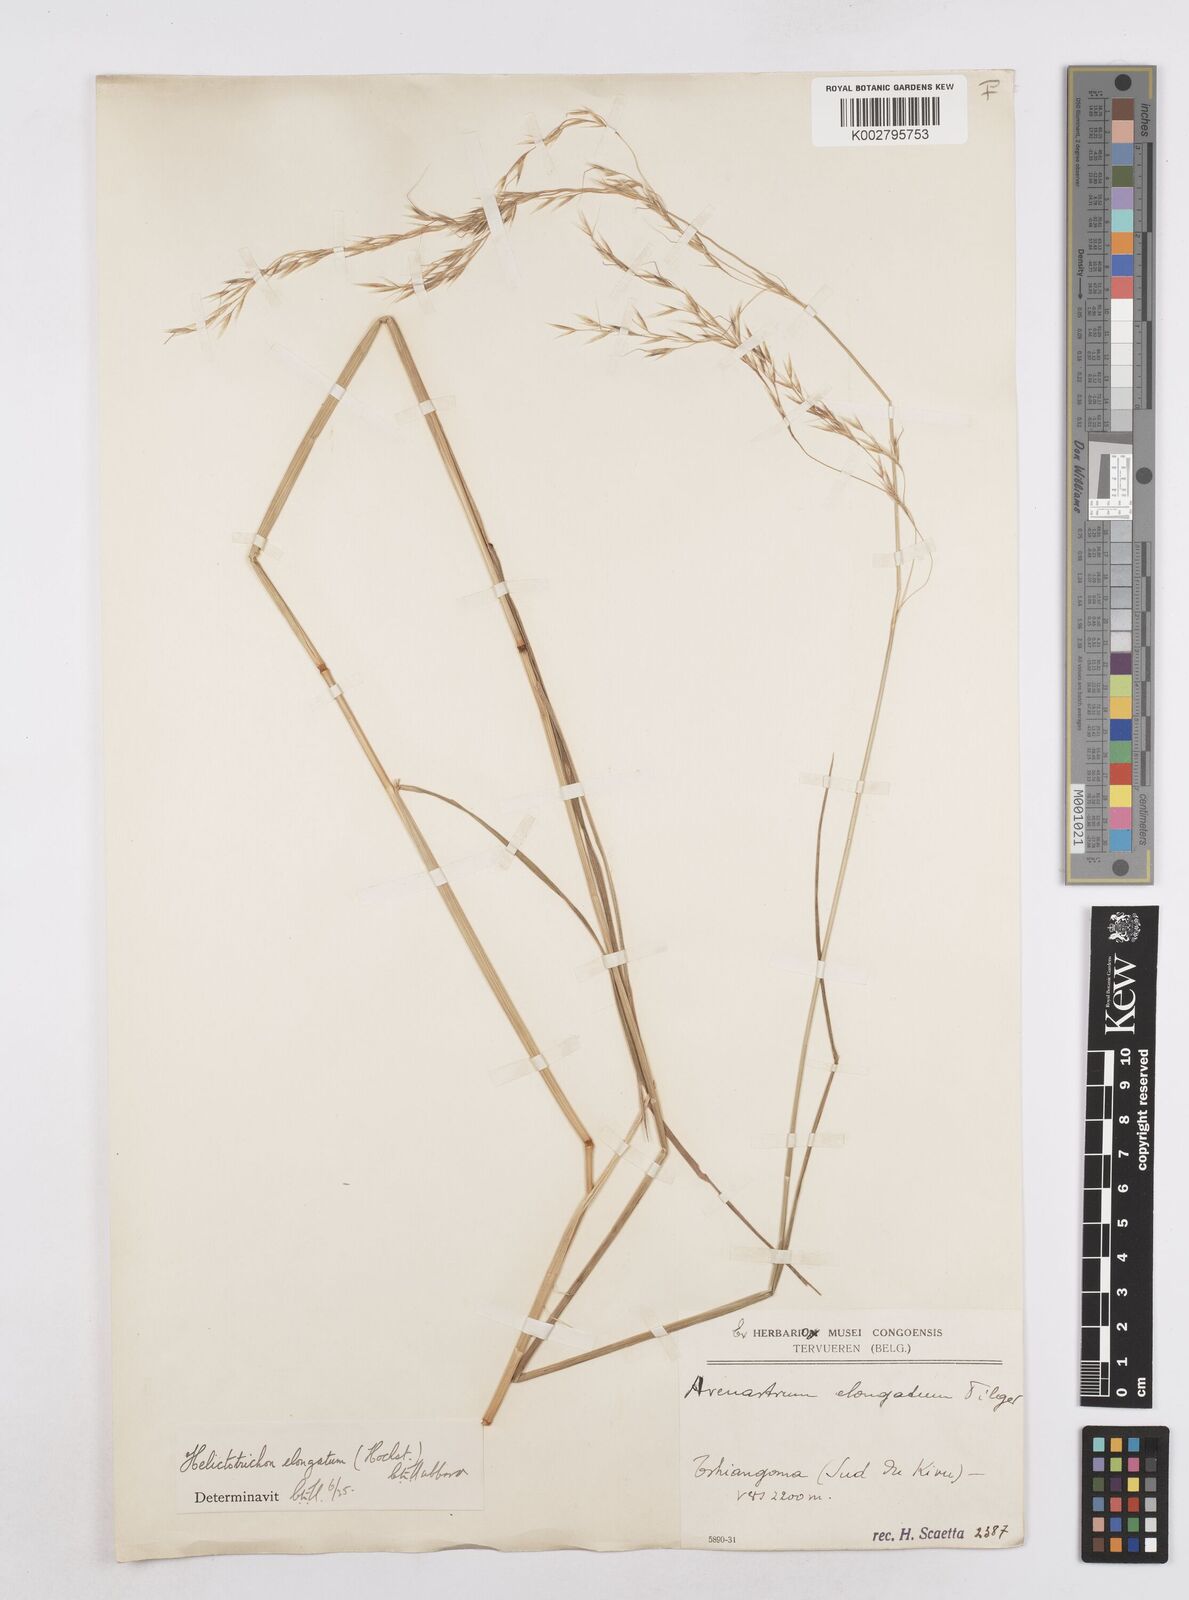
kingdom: Plantae
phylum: Tracheophyta
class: Liliopsida
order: Poales
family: Poaceae
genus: Trisetopsis
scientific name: Trisetopsis elongata
